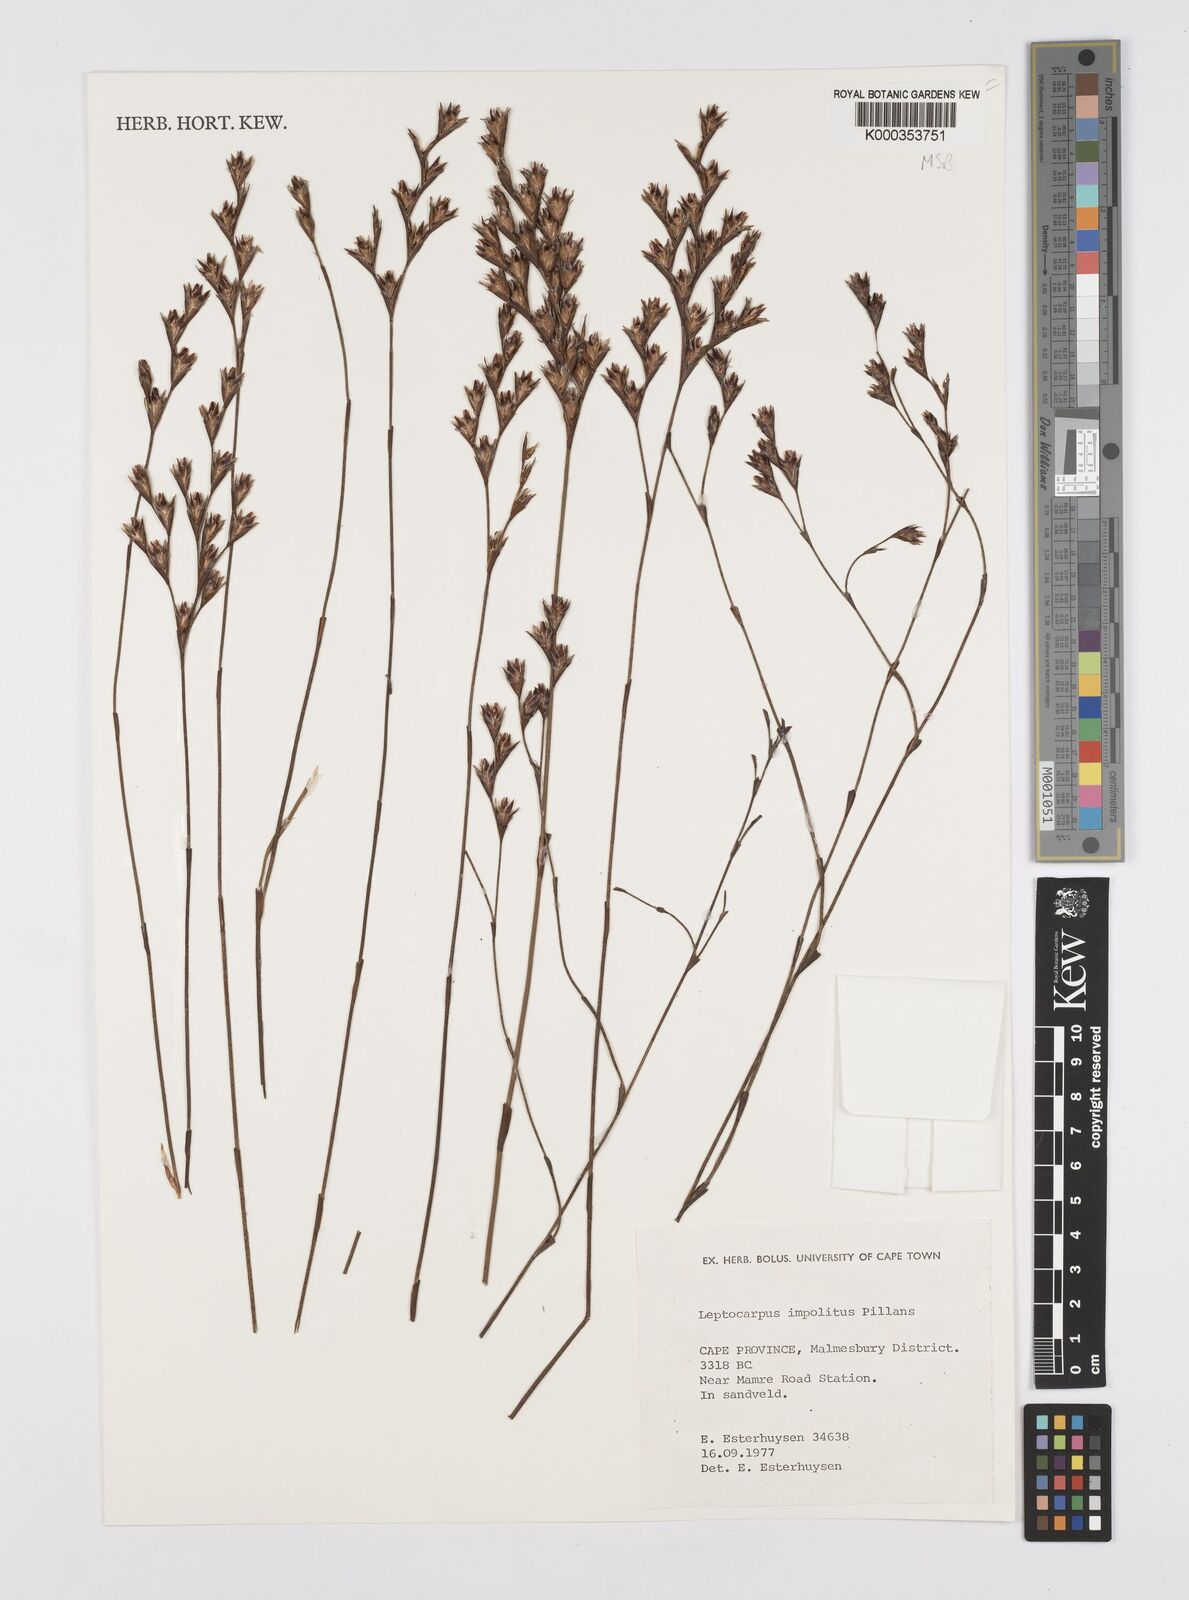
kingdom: Plantae
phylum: Tracheophyta
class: Liliopsida
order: Poales
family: Restionaceae
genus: Restio
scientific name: Restio impolitus
